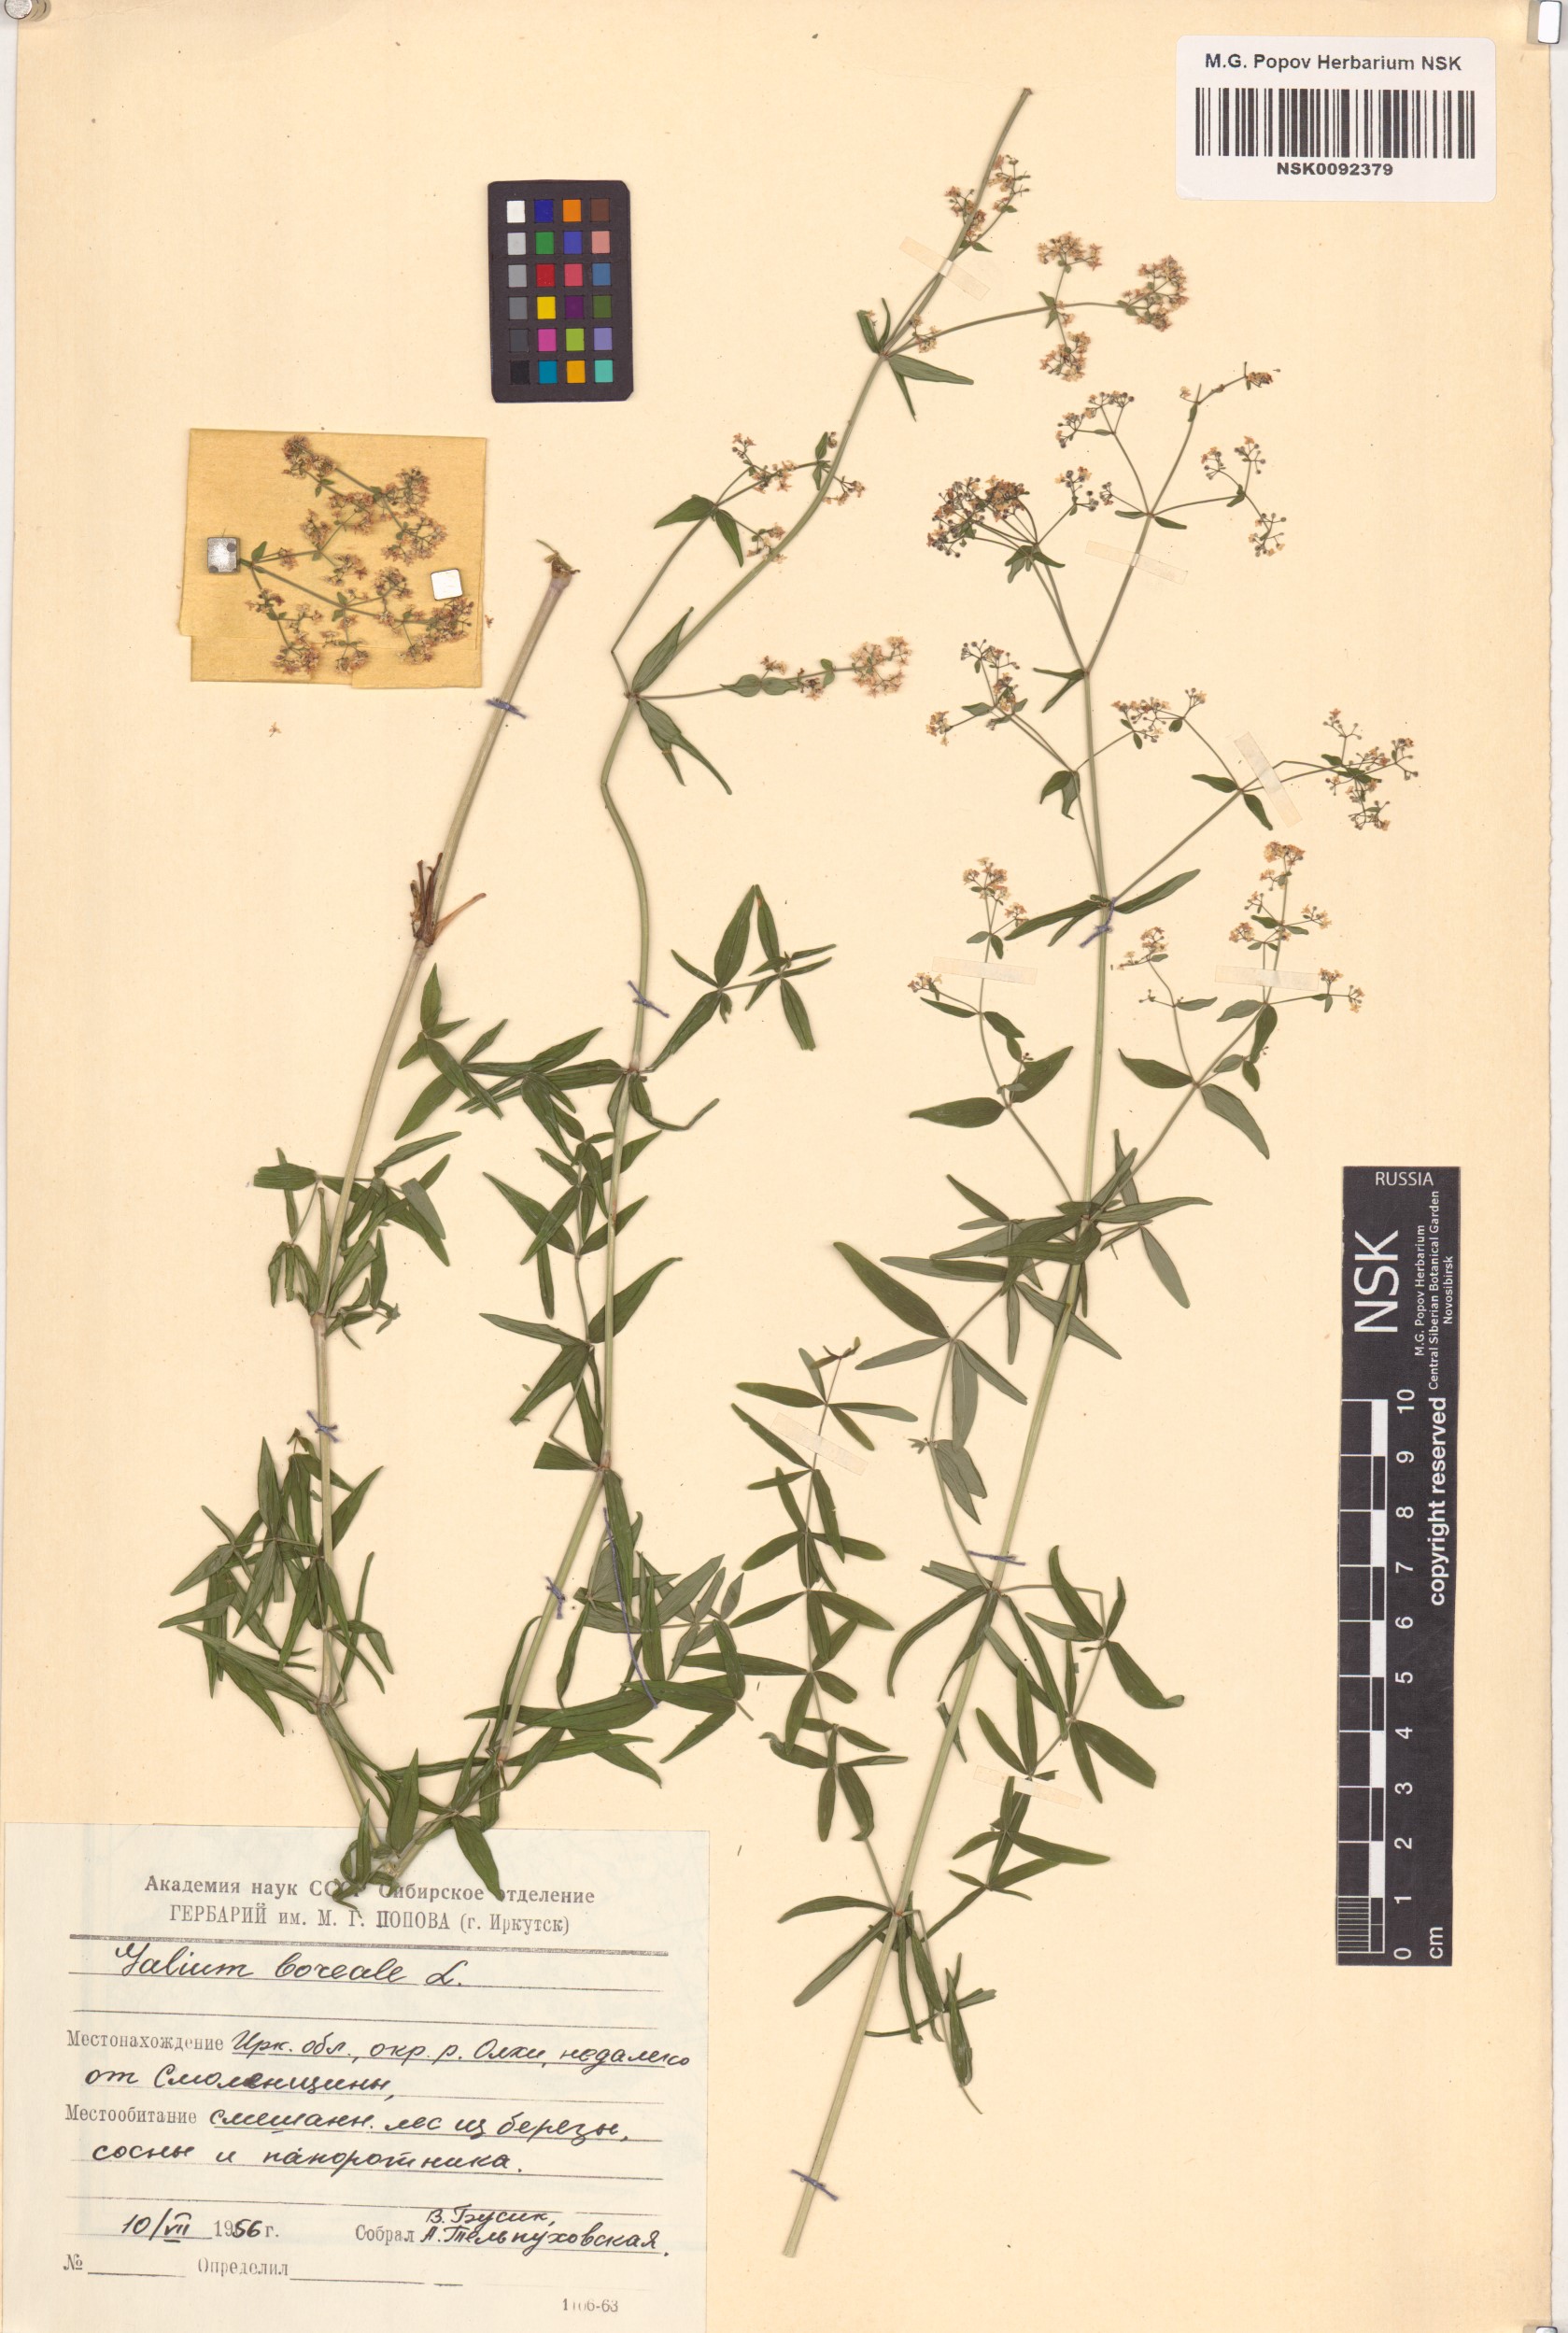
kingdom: Plantae
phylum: Tracheophyta
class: Magnoliopsida
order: Gentianales
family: Rubiaceae
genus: Galium
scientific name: Galium boreale
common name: Northern bedstraw
